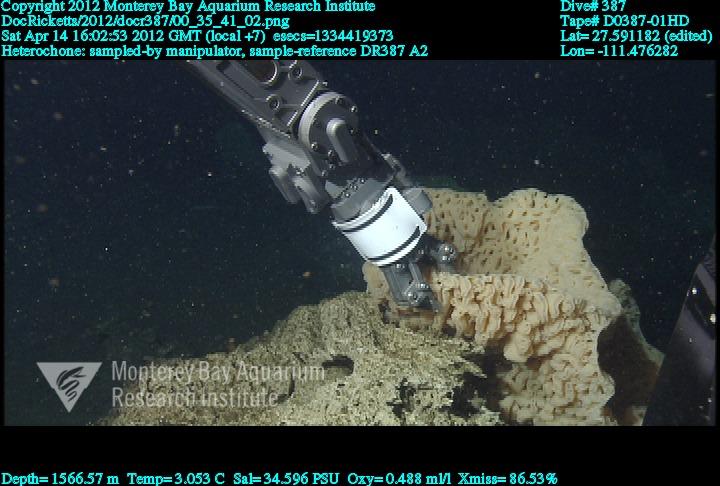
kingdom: Animalia
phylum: Porifera
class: Hexactinellida
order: Sceptrulophora
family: Aphrocallistidae
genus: Heterochone
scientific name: Heterochone
